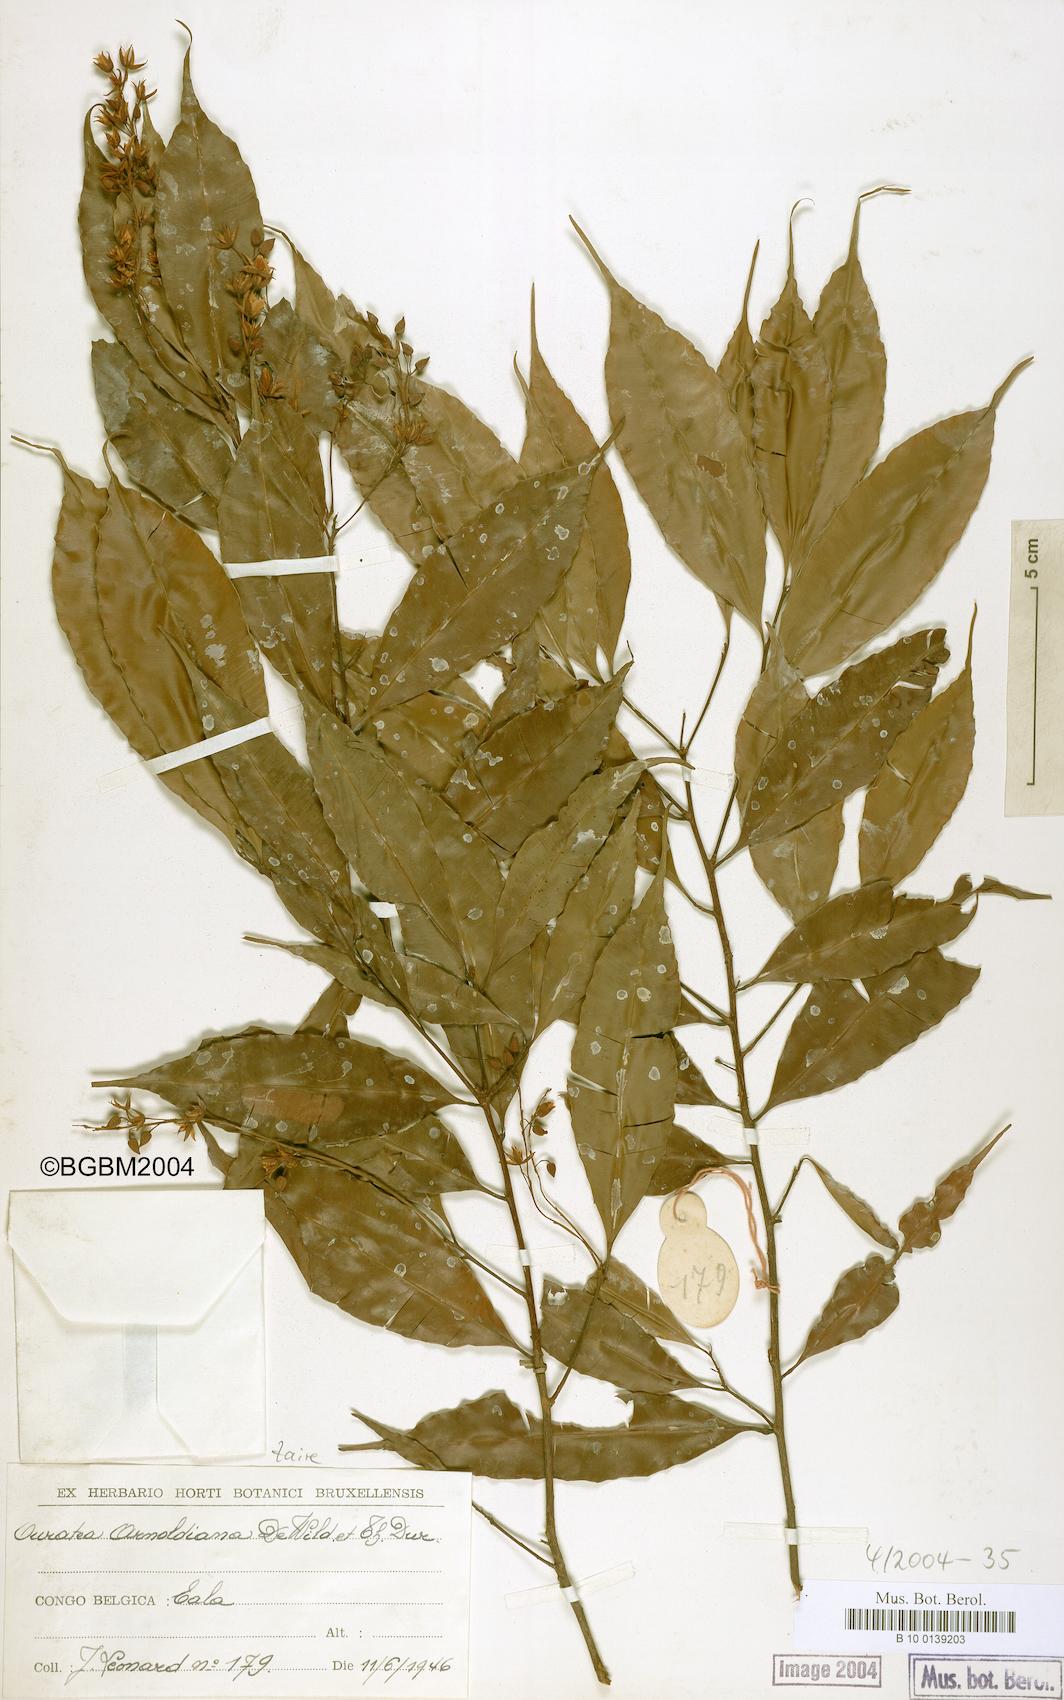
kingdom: Plantae
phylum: Tracheophyta
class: Magnoliopsida
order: Malpighiales
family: Ochnaceae
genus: Rhabdophyllum
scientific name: Rhabdophyllum arnoldianum
